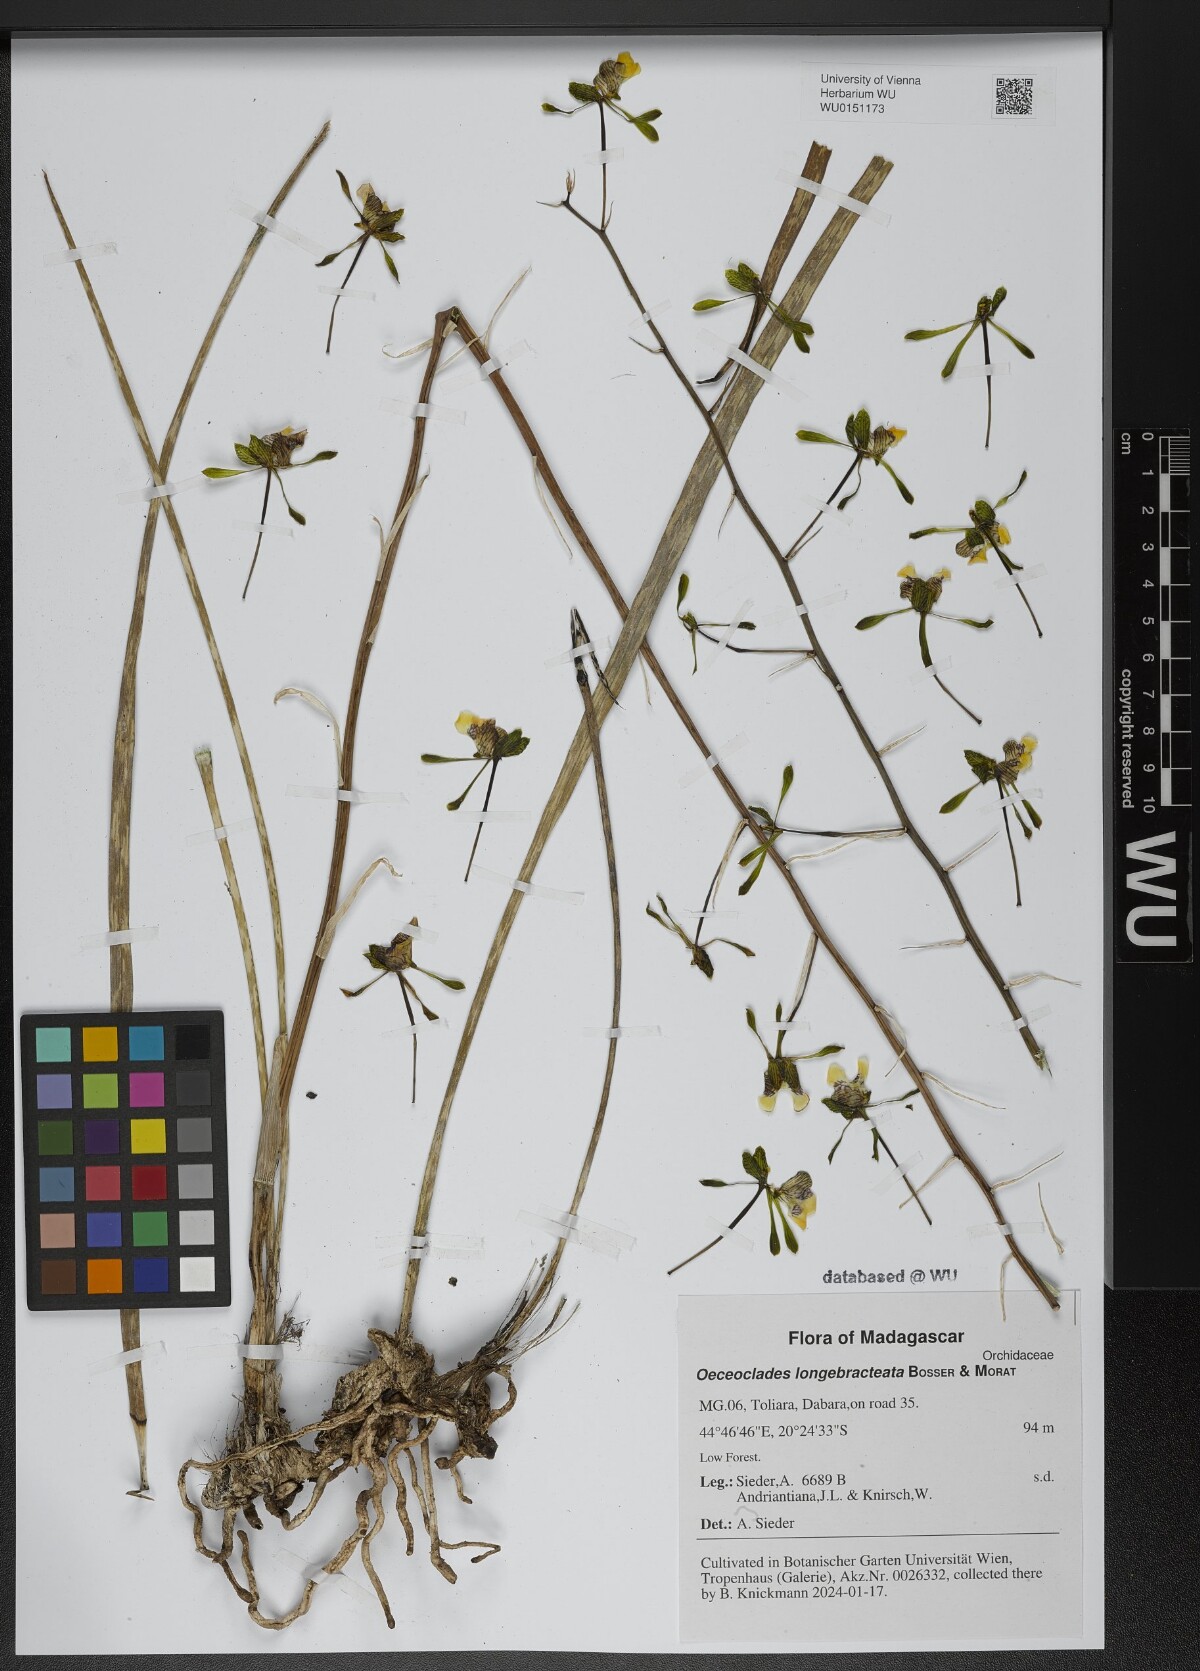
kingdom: Plantae
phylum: Tracheophyta
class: Liliopsida
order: Asparagales
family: Orchidaceae
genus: Eulophia
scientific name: Eulophia bosseriana
